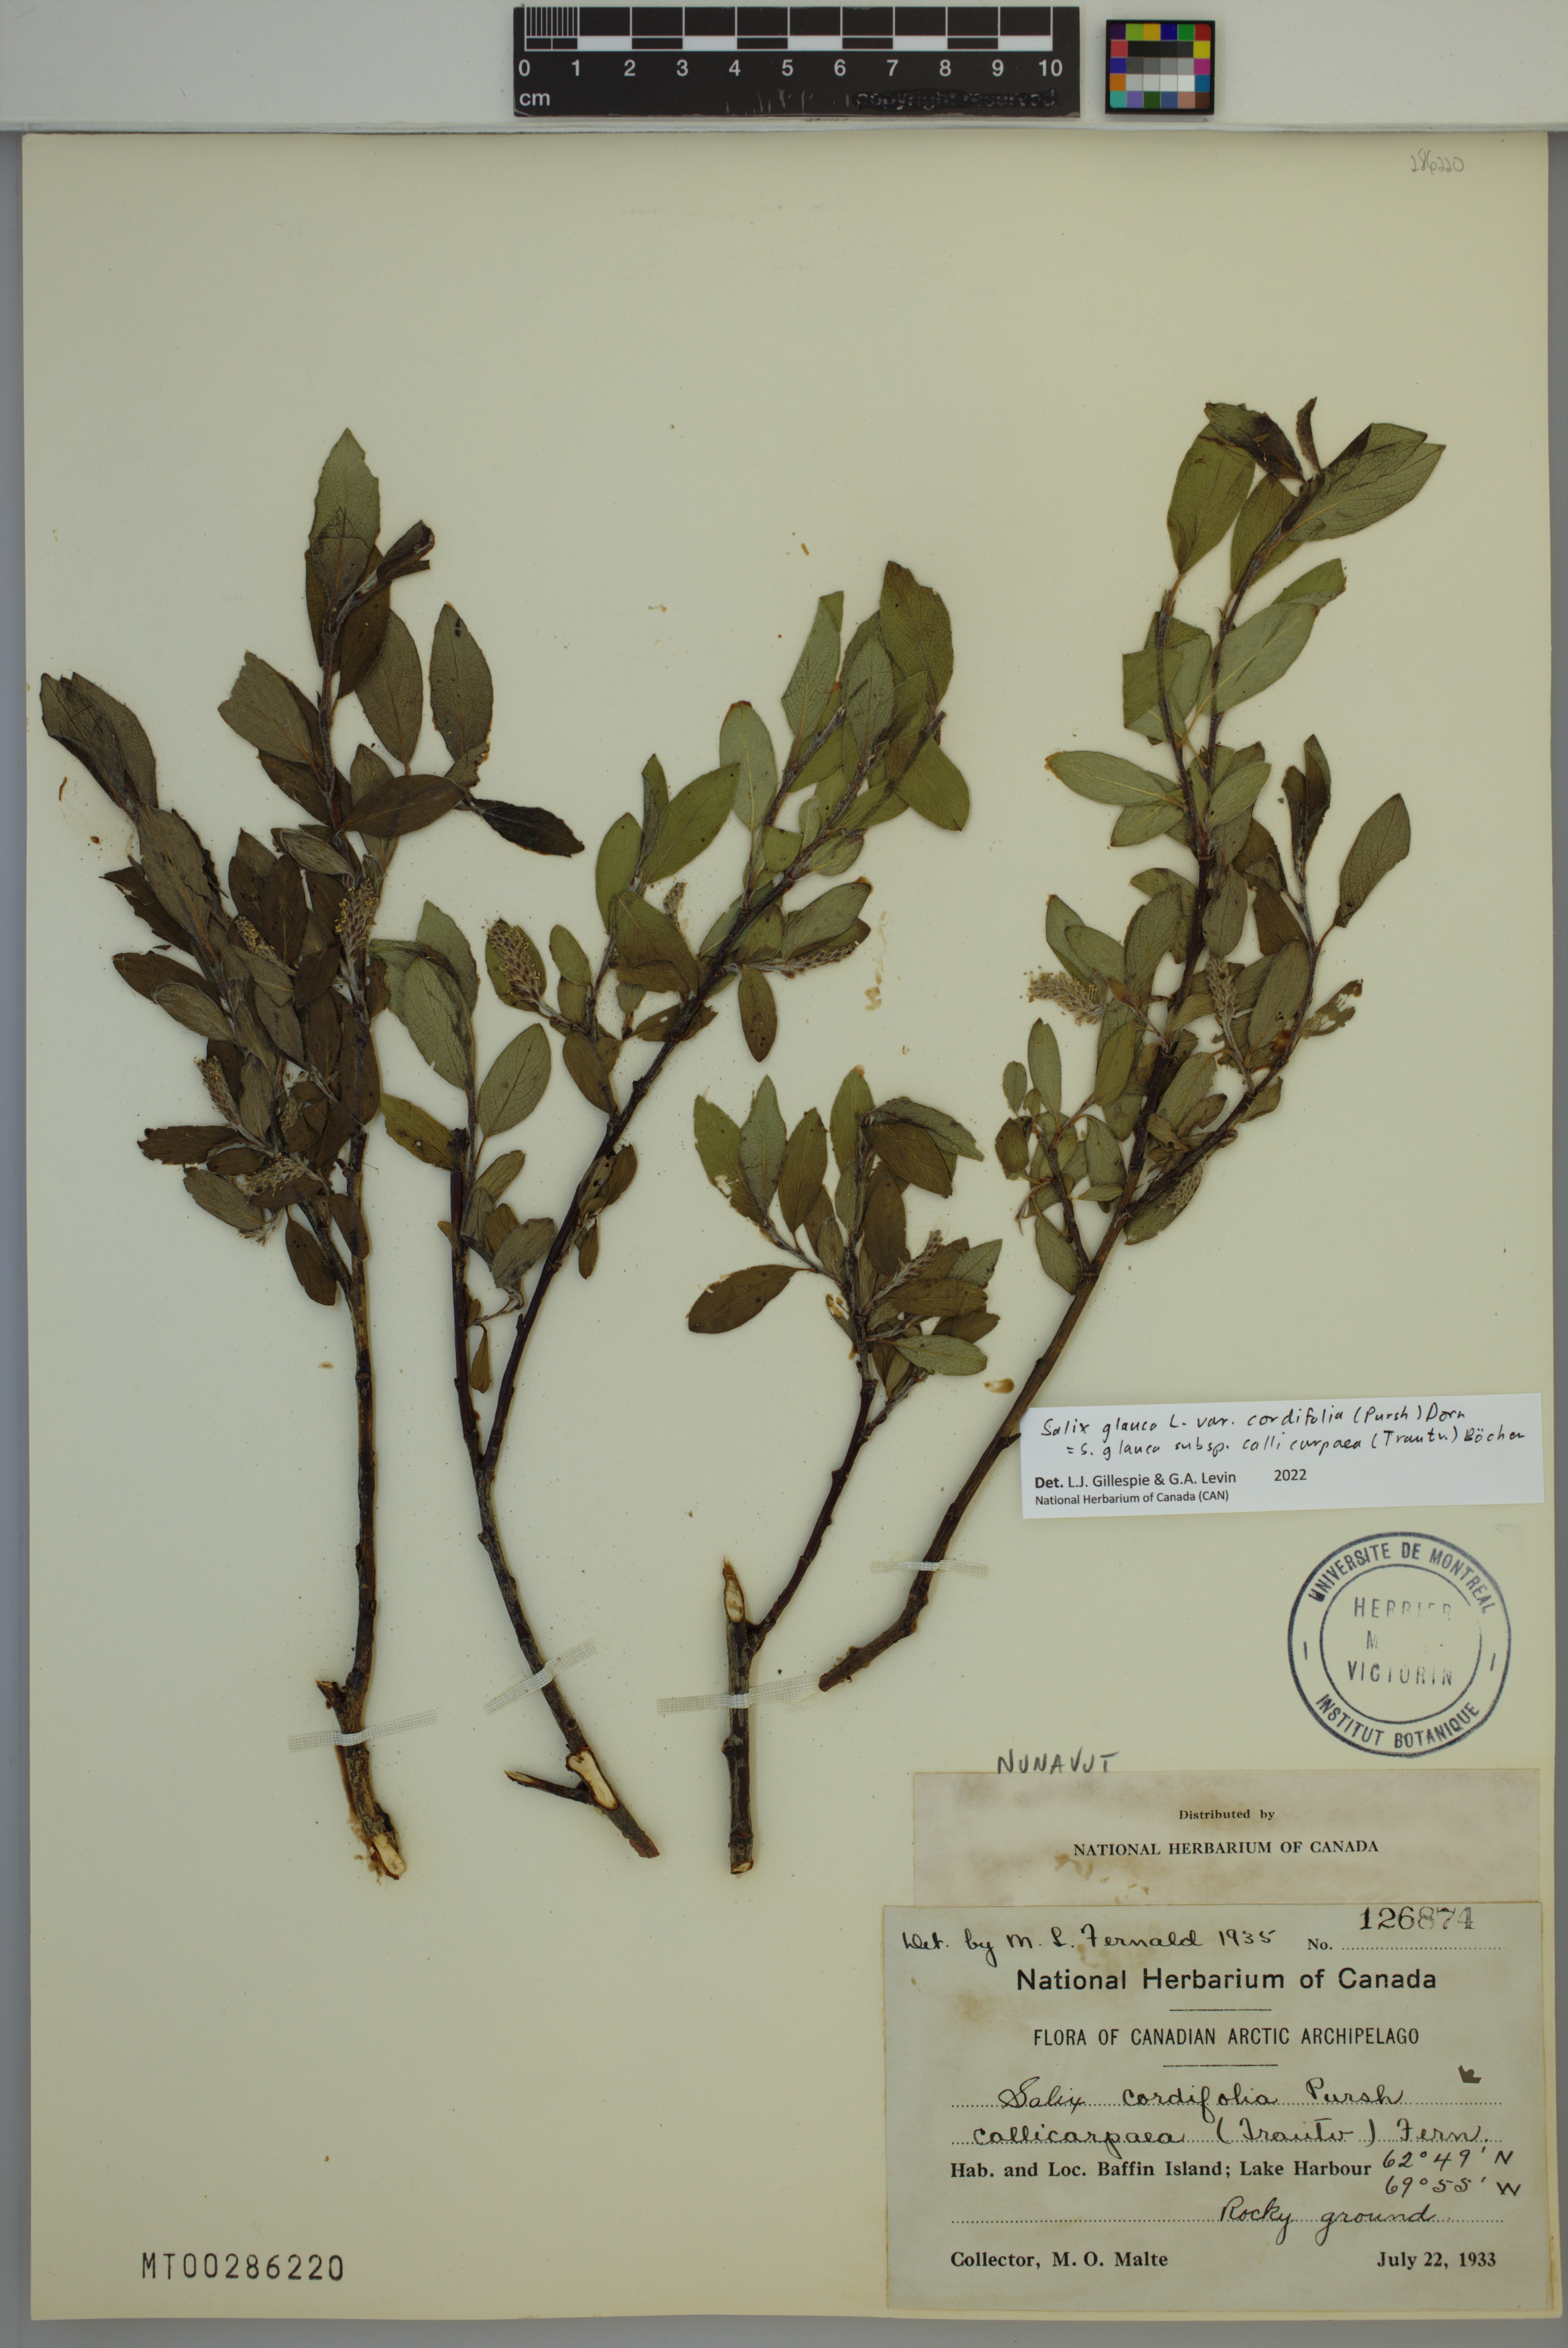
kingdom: Plantae
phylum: Tracheophyta
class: Magnoliopsida
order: Malpighiales
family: Salicaceae
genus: Salix
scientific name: Salix glauca
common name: Glaucous willow
